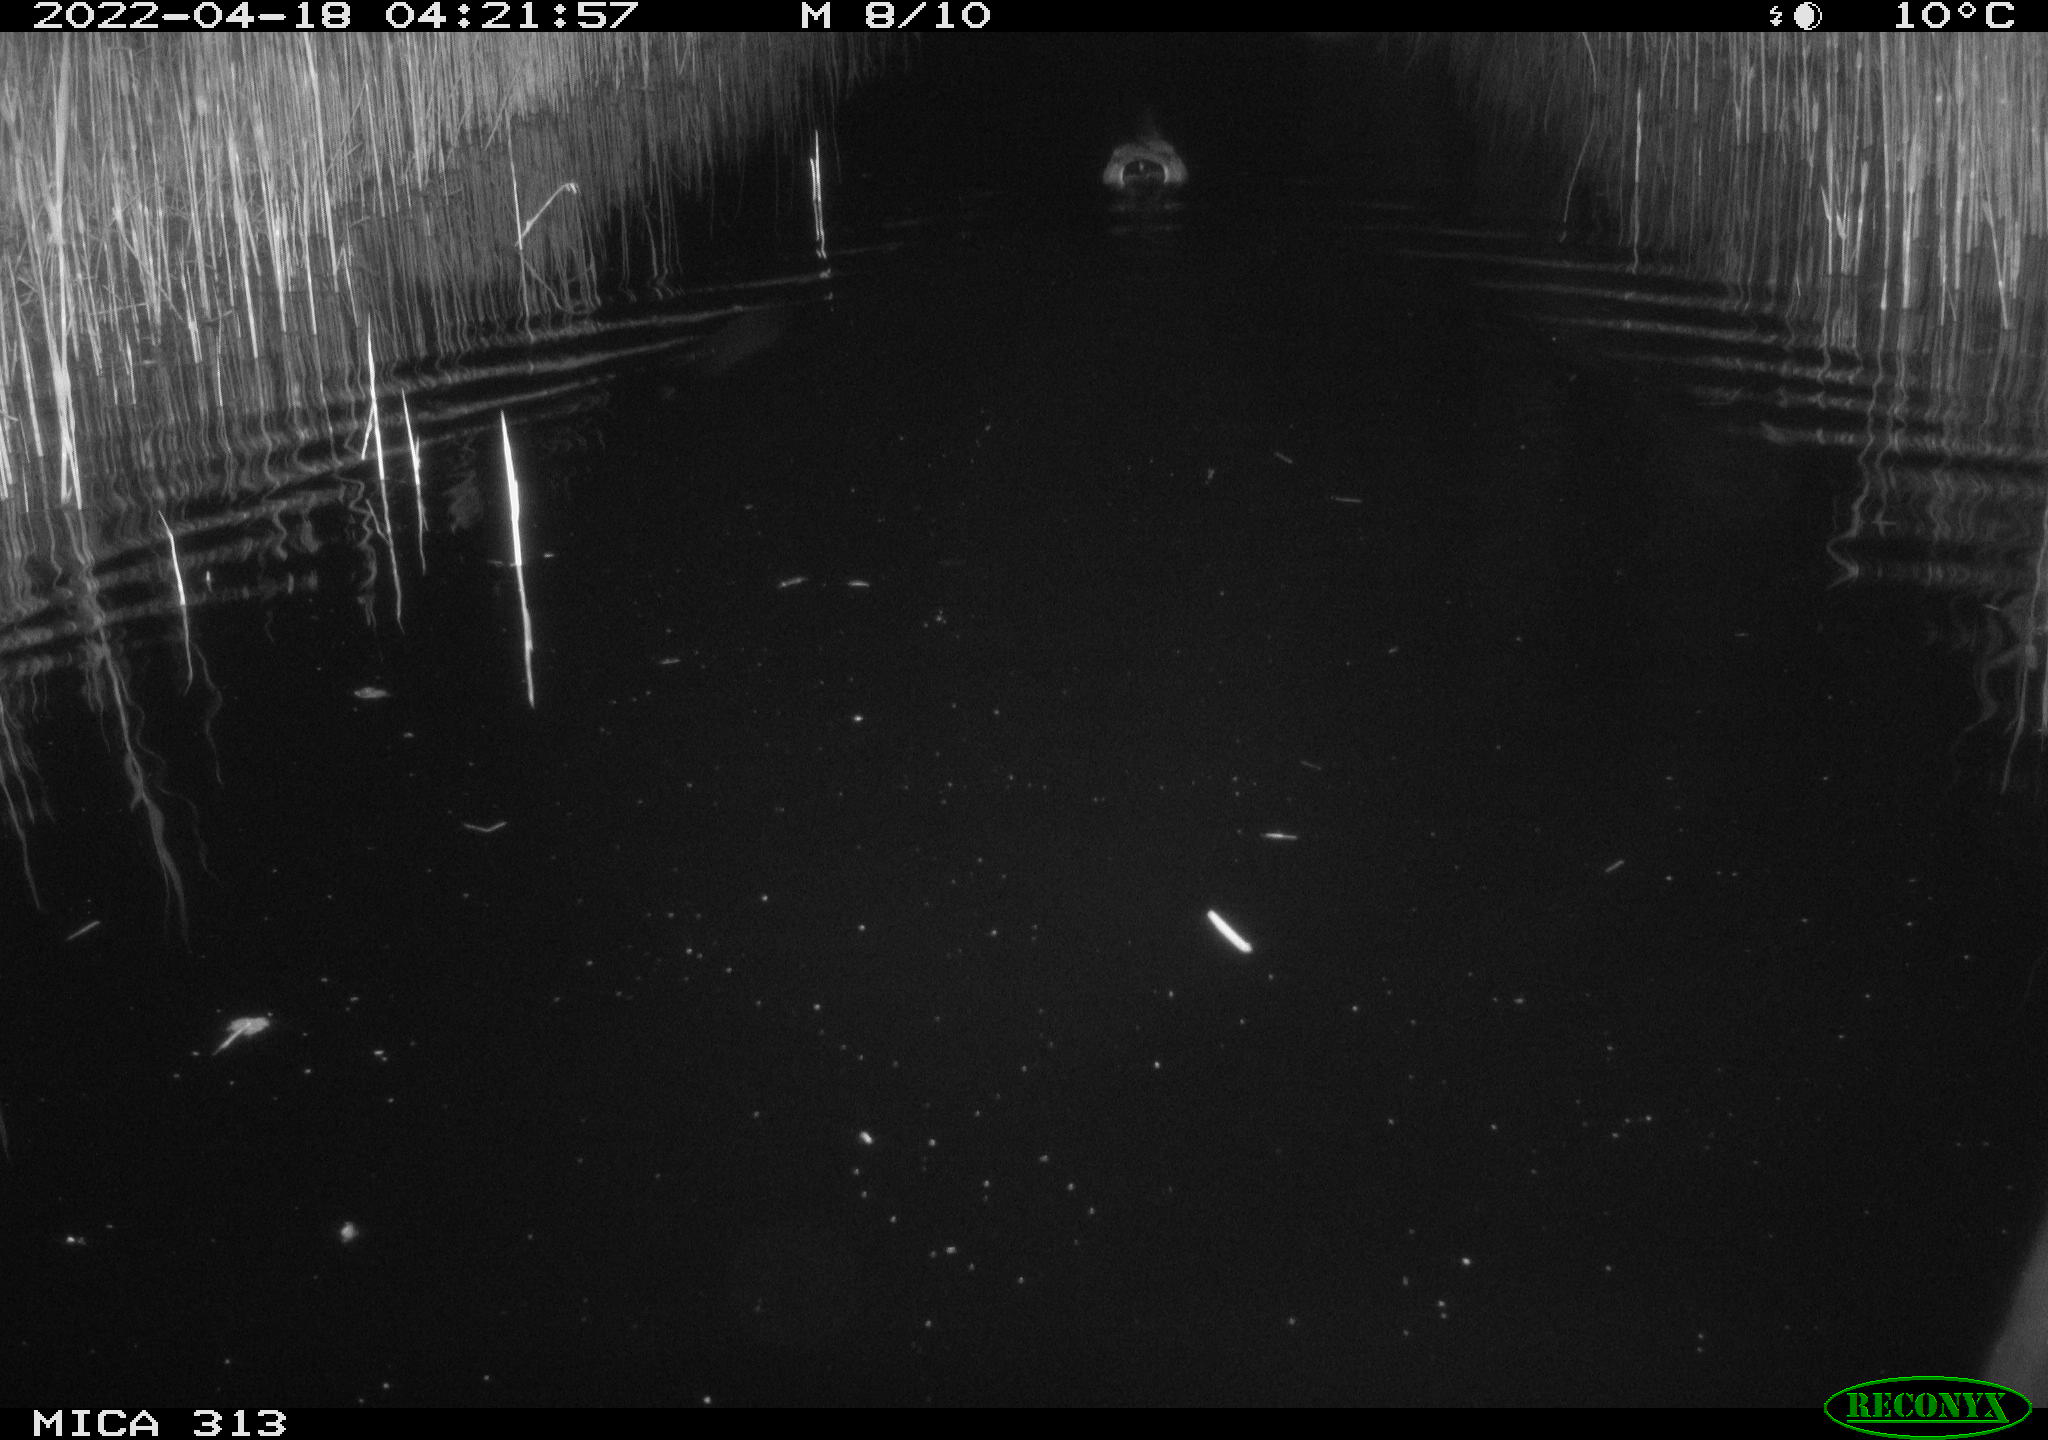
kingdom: Animalia
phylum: Chordata
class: Aves
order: Anseriformes
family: Anatidae
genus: Anas
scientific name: Anas platyrhynchos
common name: Mallard
